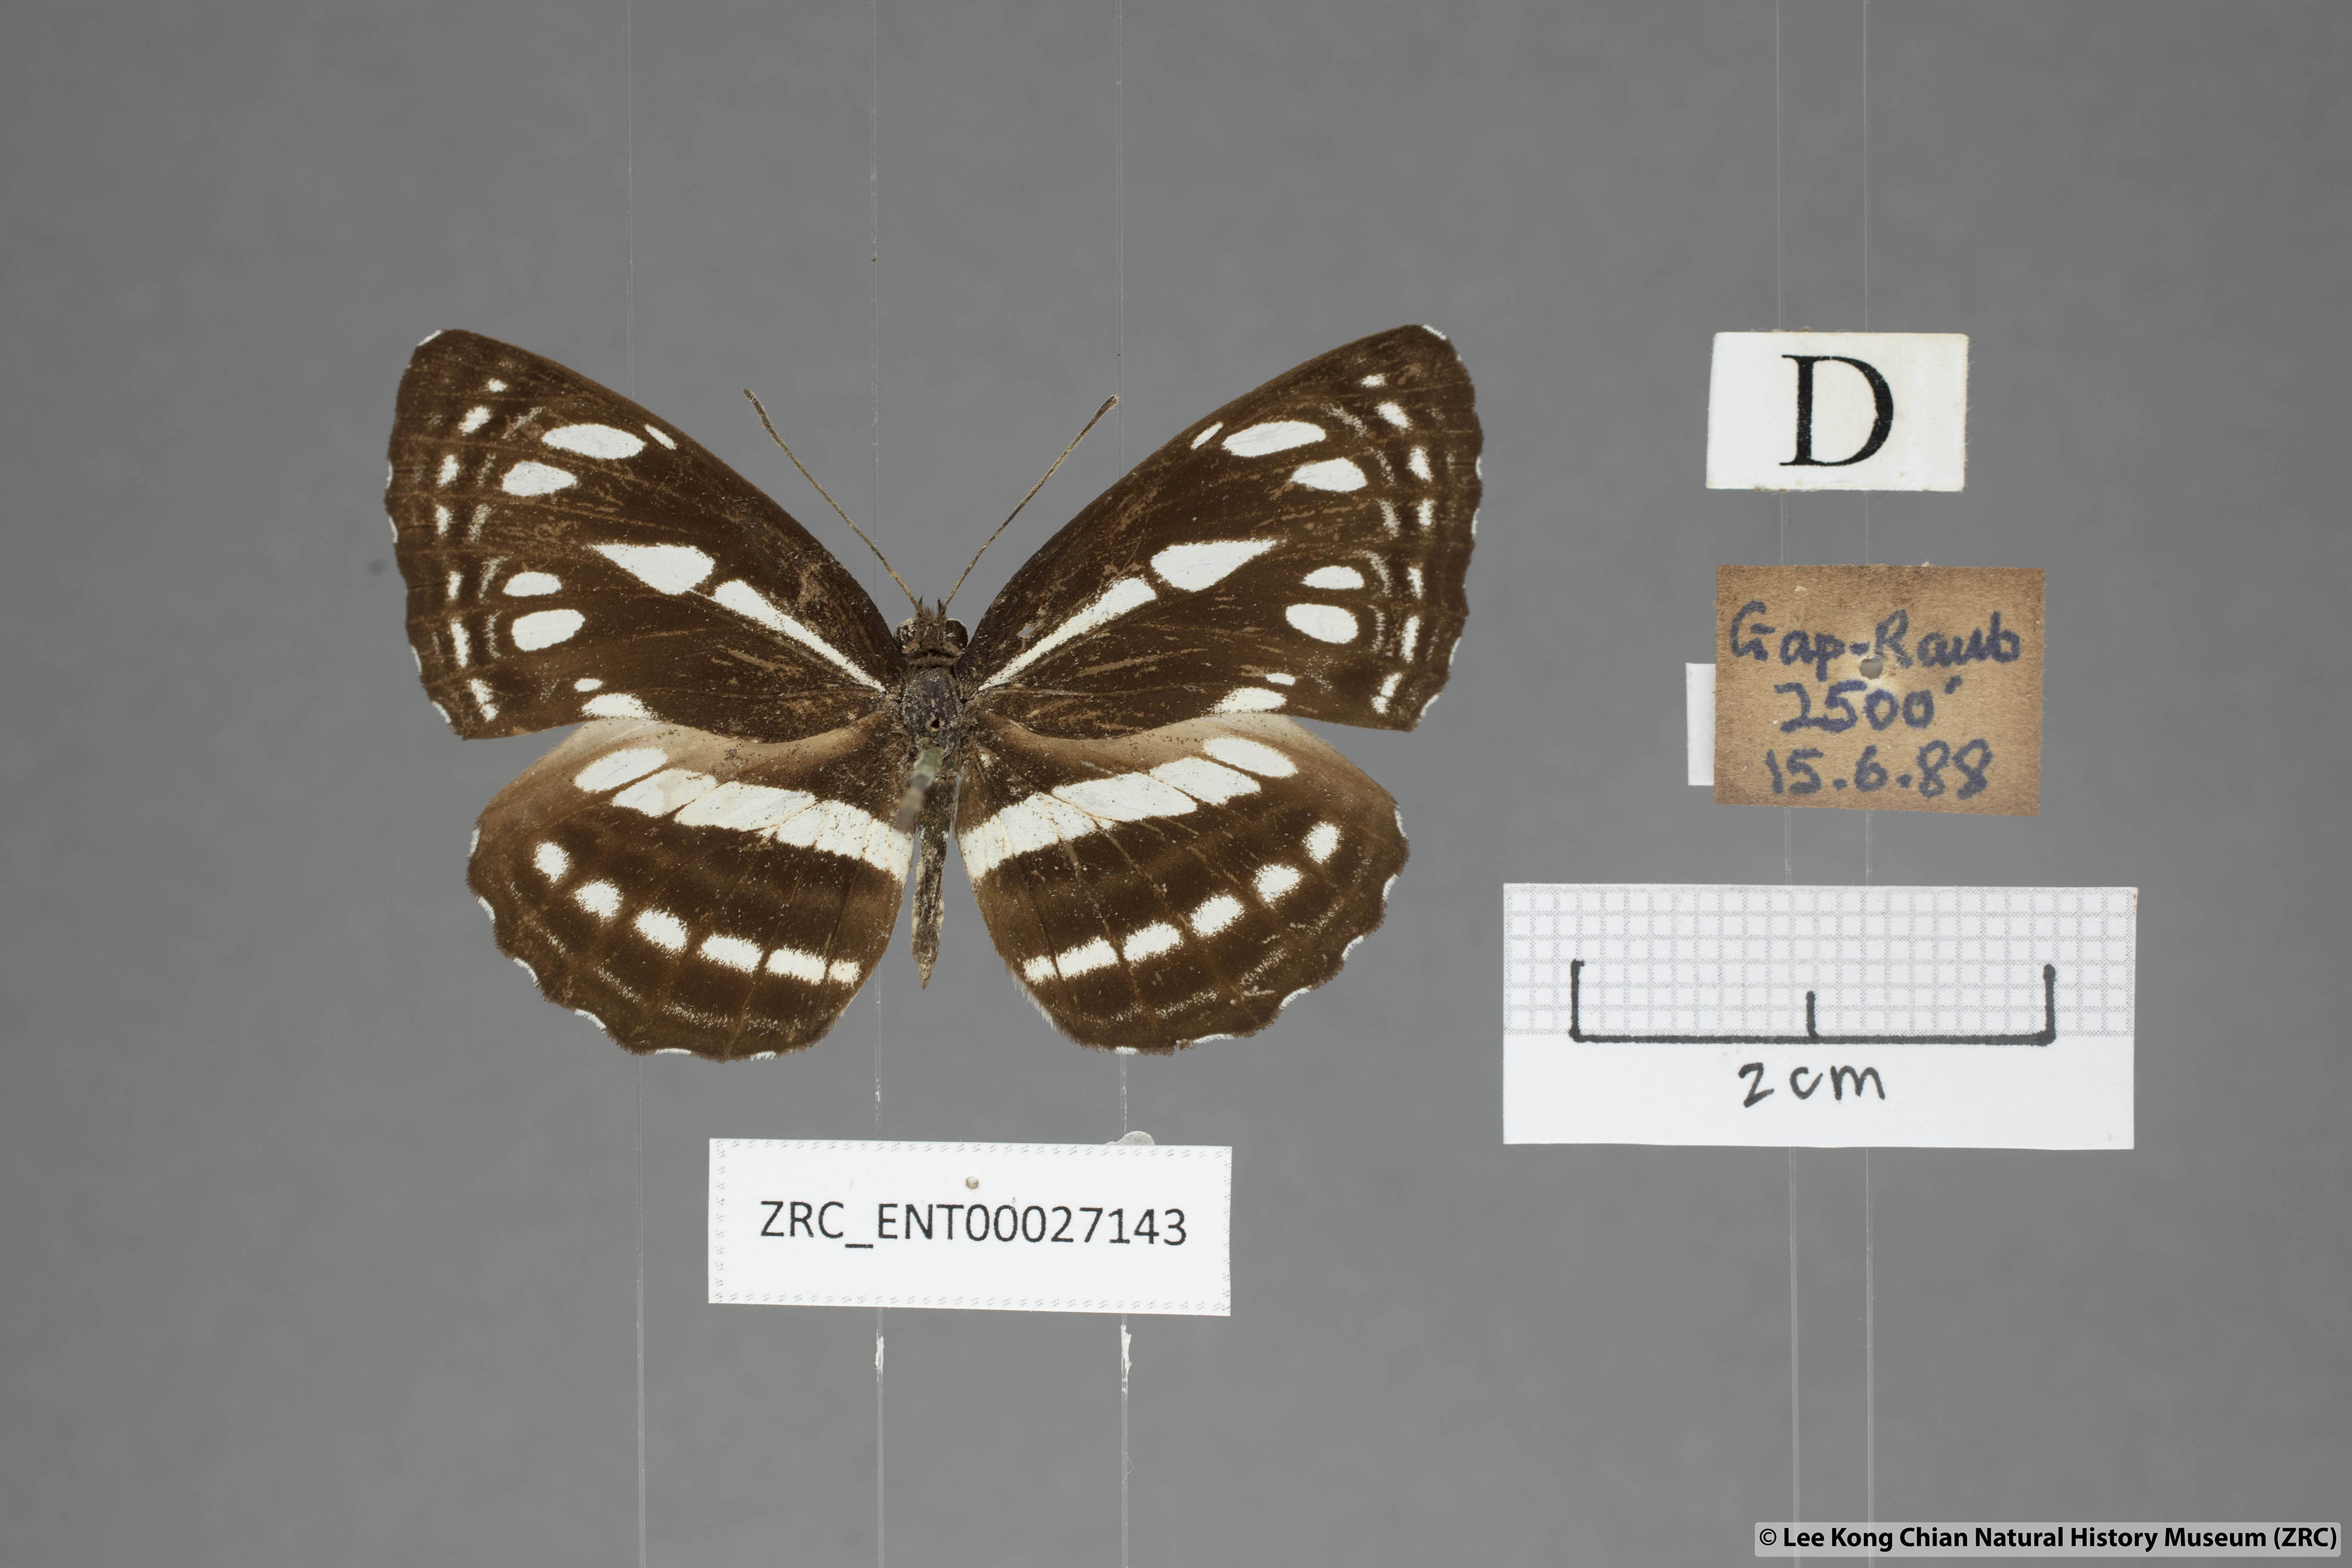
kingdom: Animalia
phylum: Arthropoda
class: Insecta
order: Lepidoptera
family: Nymphalidae
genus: Neptis
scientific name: Neptis duryodana
